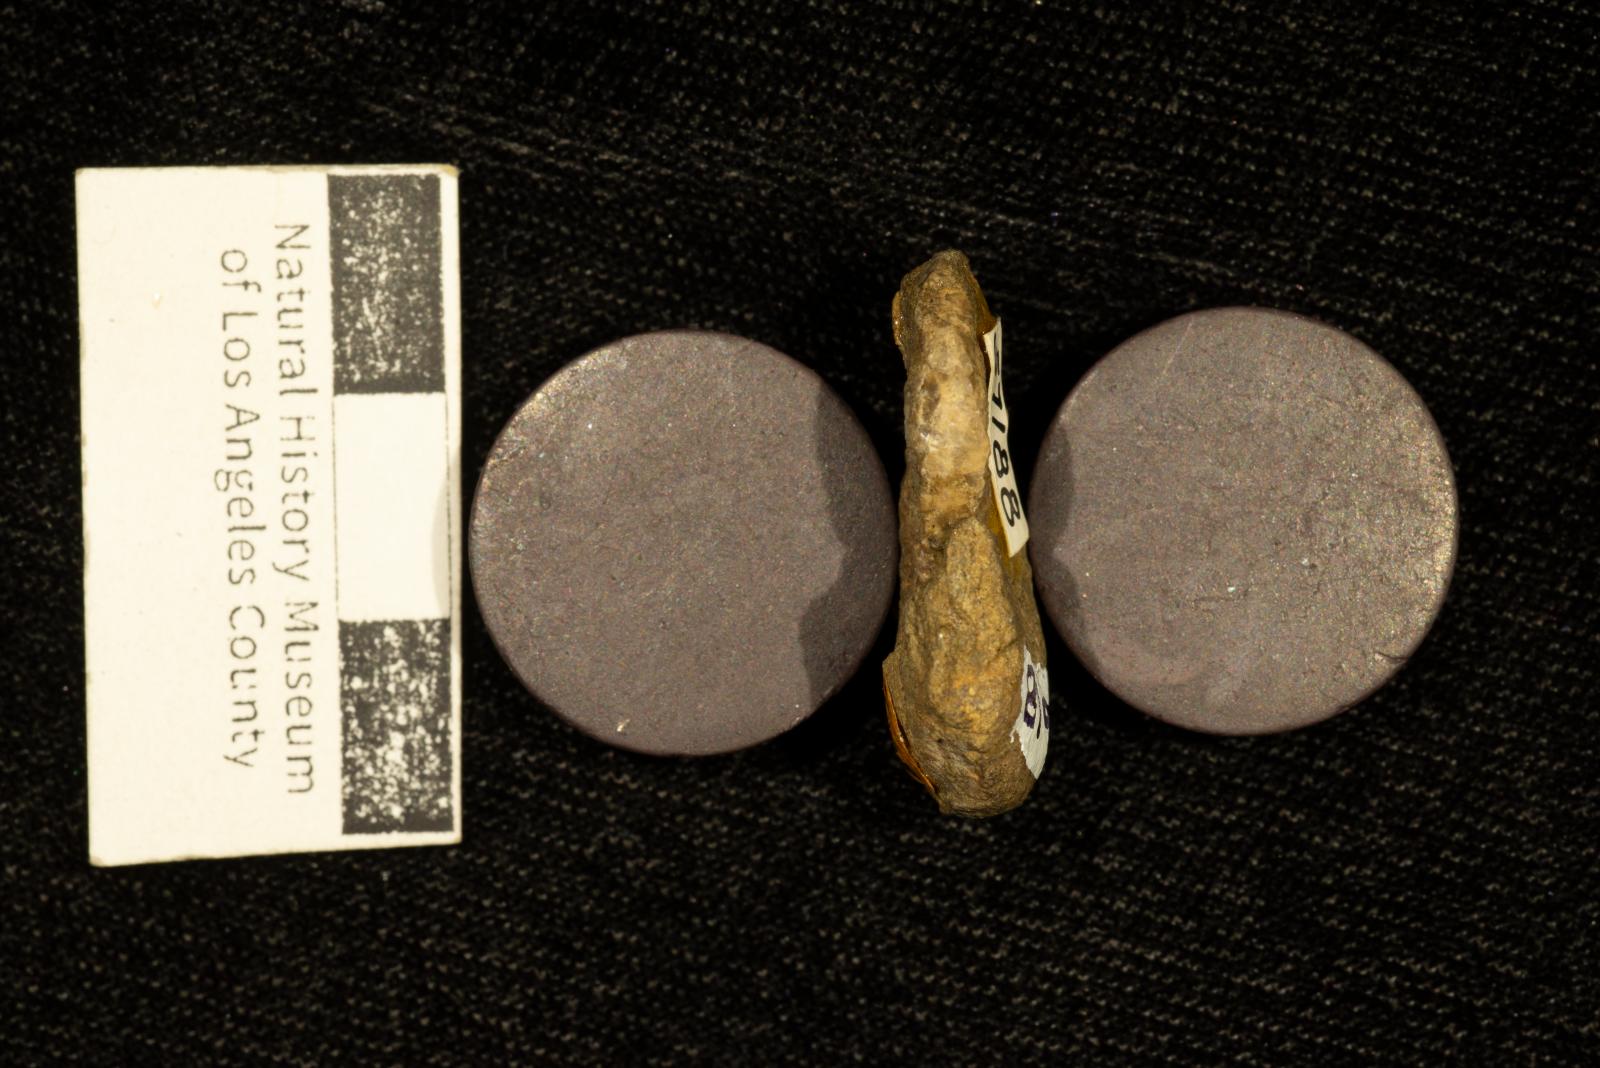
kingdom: Animalia
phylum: Mollusca
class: Cephalopoda
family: Scaphitidae
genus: Scaphites
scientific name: Scaphites gillisi
